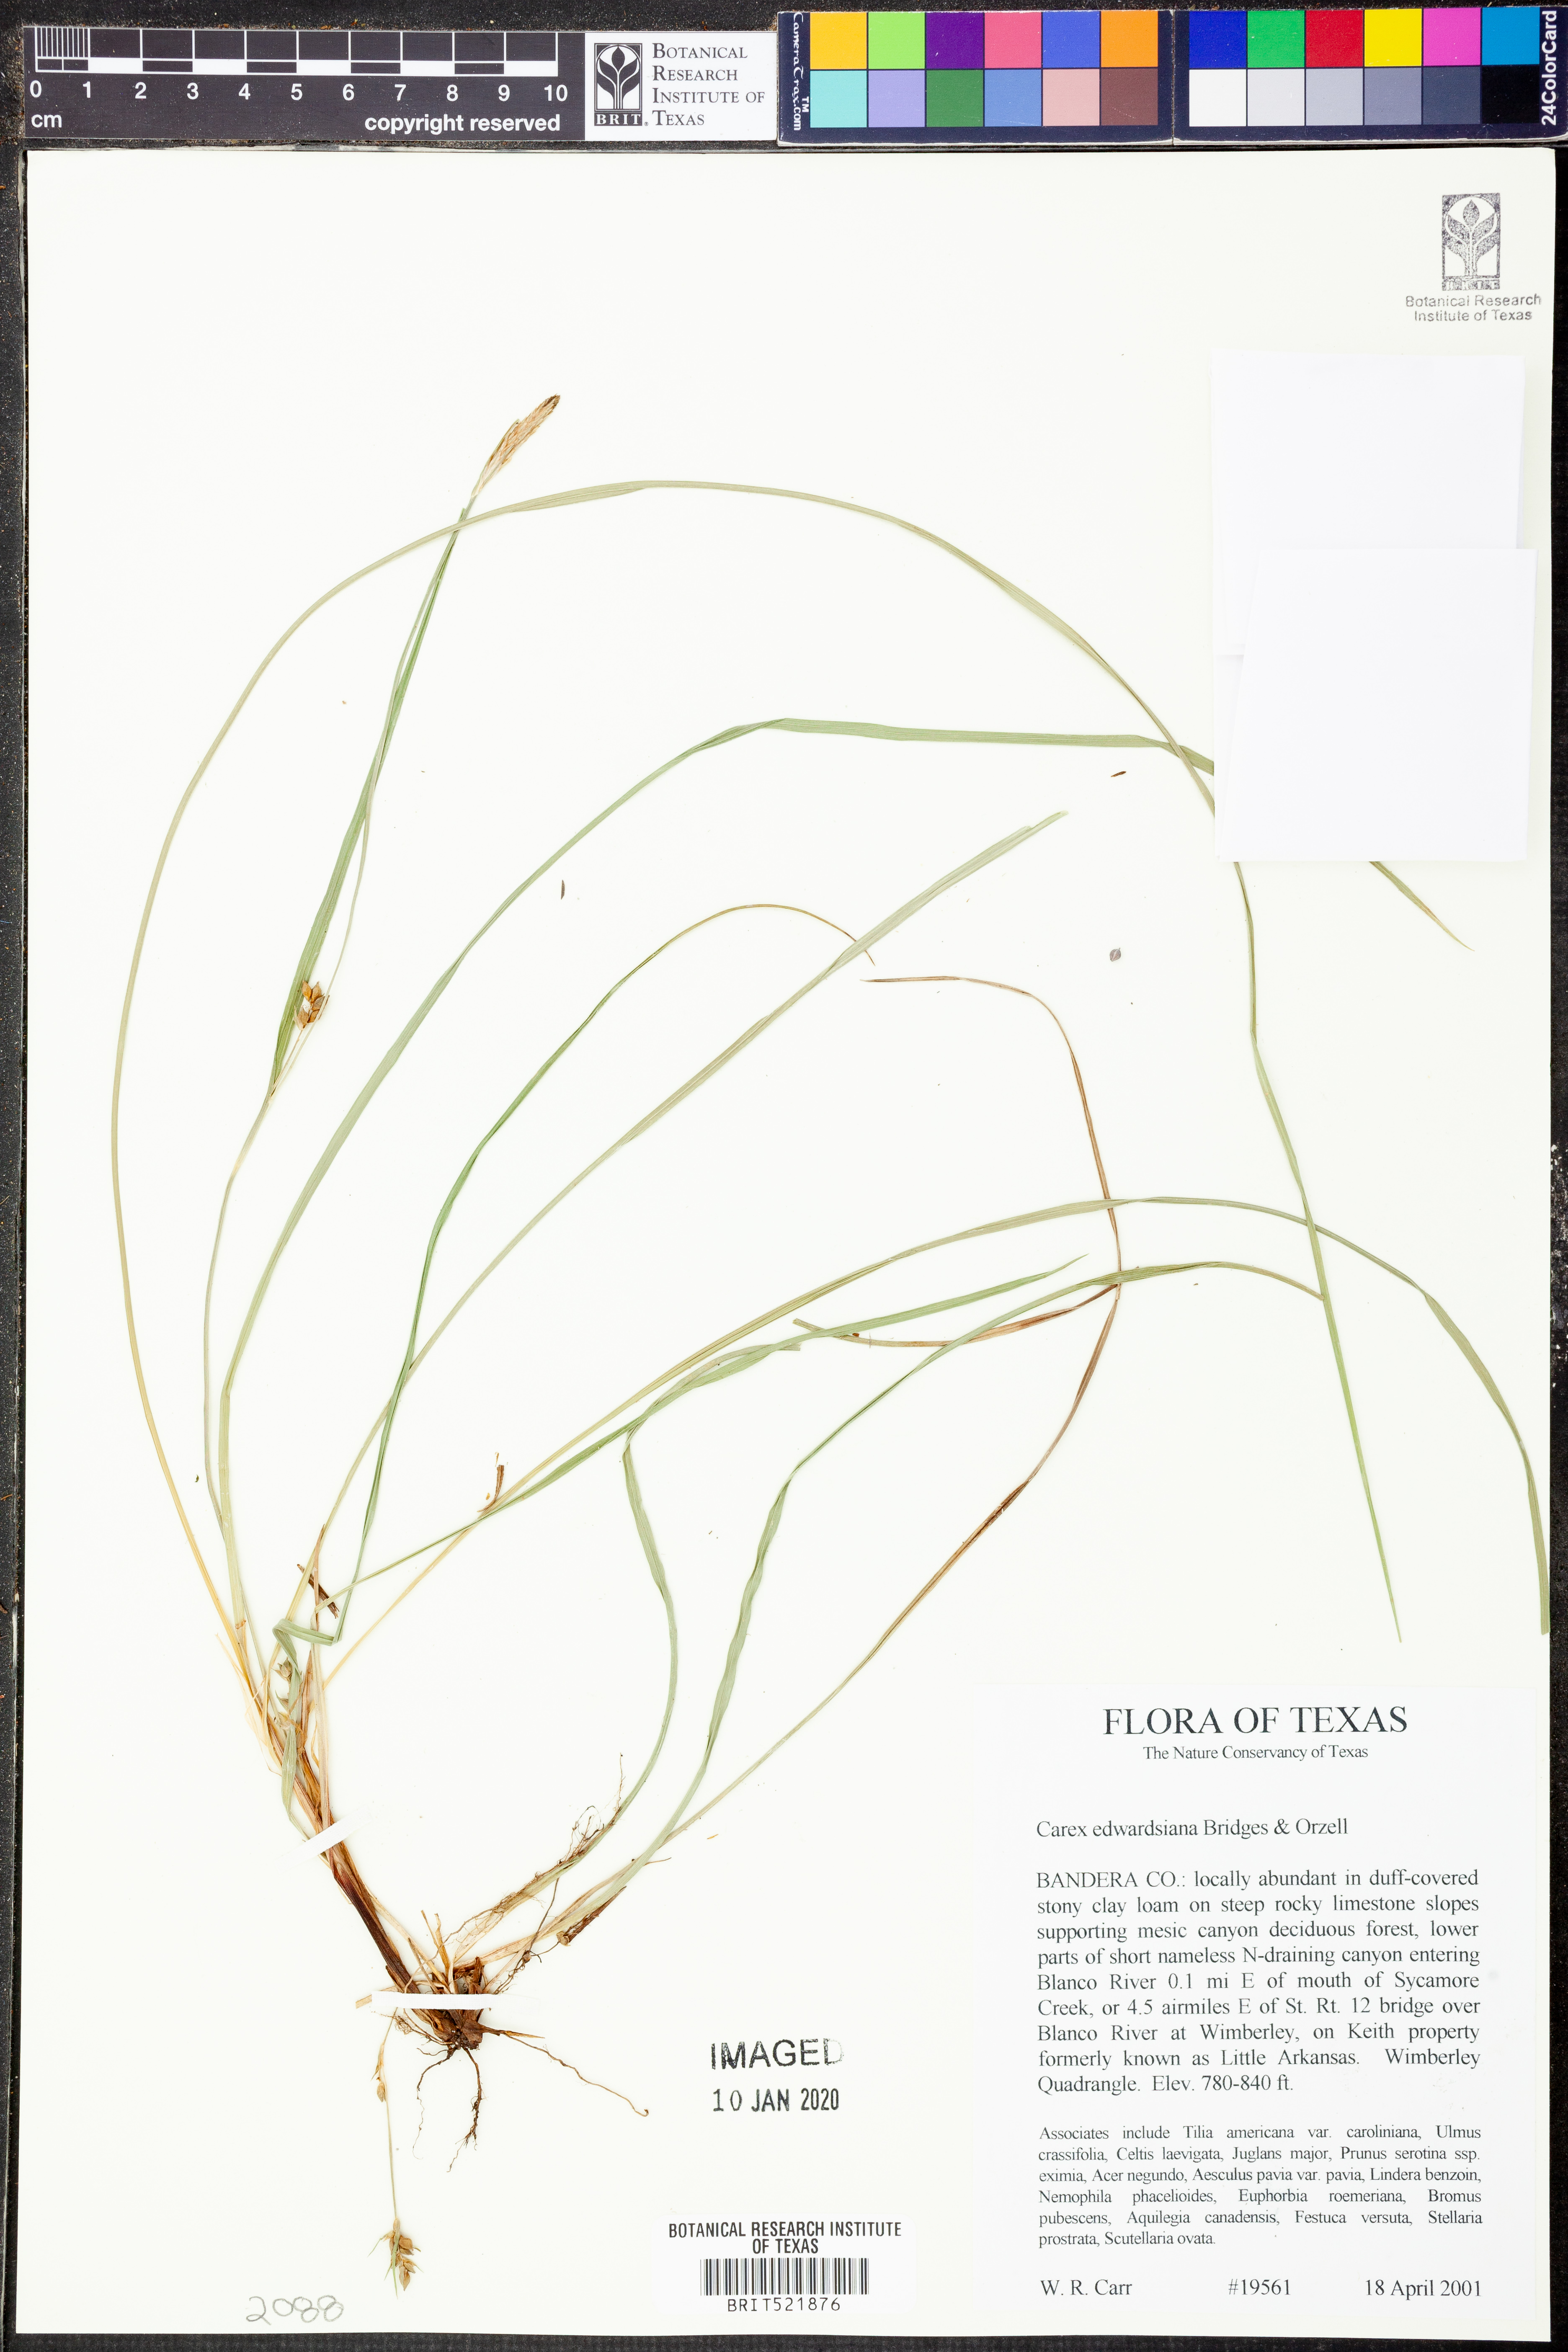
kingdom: Plantae
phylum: Tracheophyta
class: Liliopsida
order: Poales
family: Cyperaceae
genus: Carex
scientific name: Carex edwardsiana
